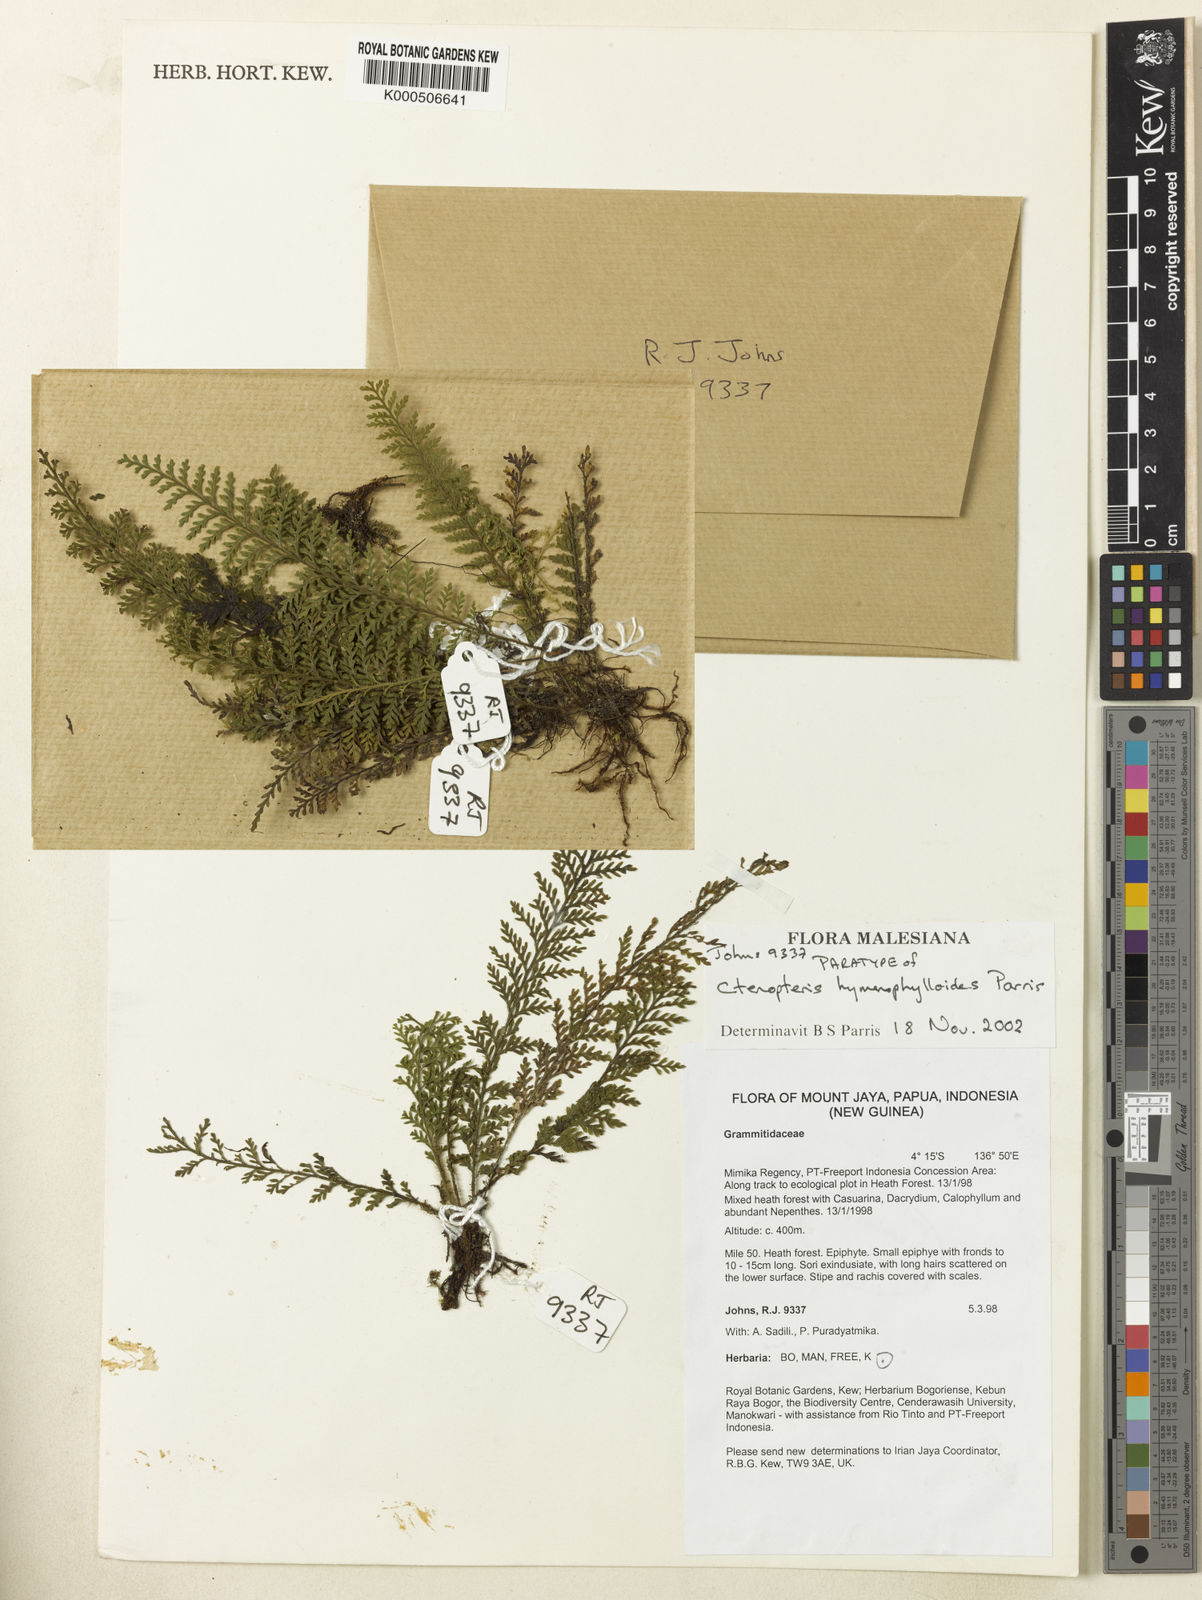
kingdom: Plantae
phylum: Tracheophyta
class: Polypodiopsida
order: Polypodiales
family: Polypodiaceae
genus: Tomophyllum
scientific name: Tomophyllum hymenophylloides
